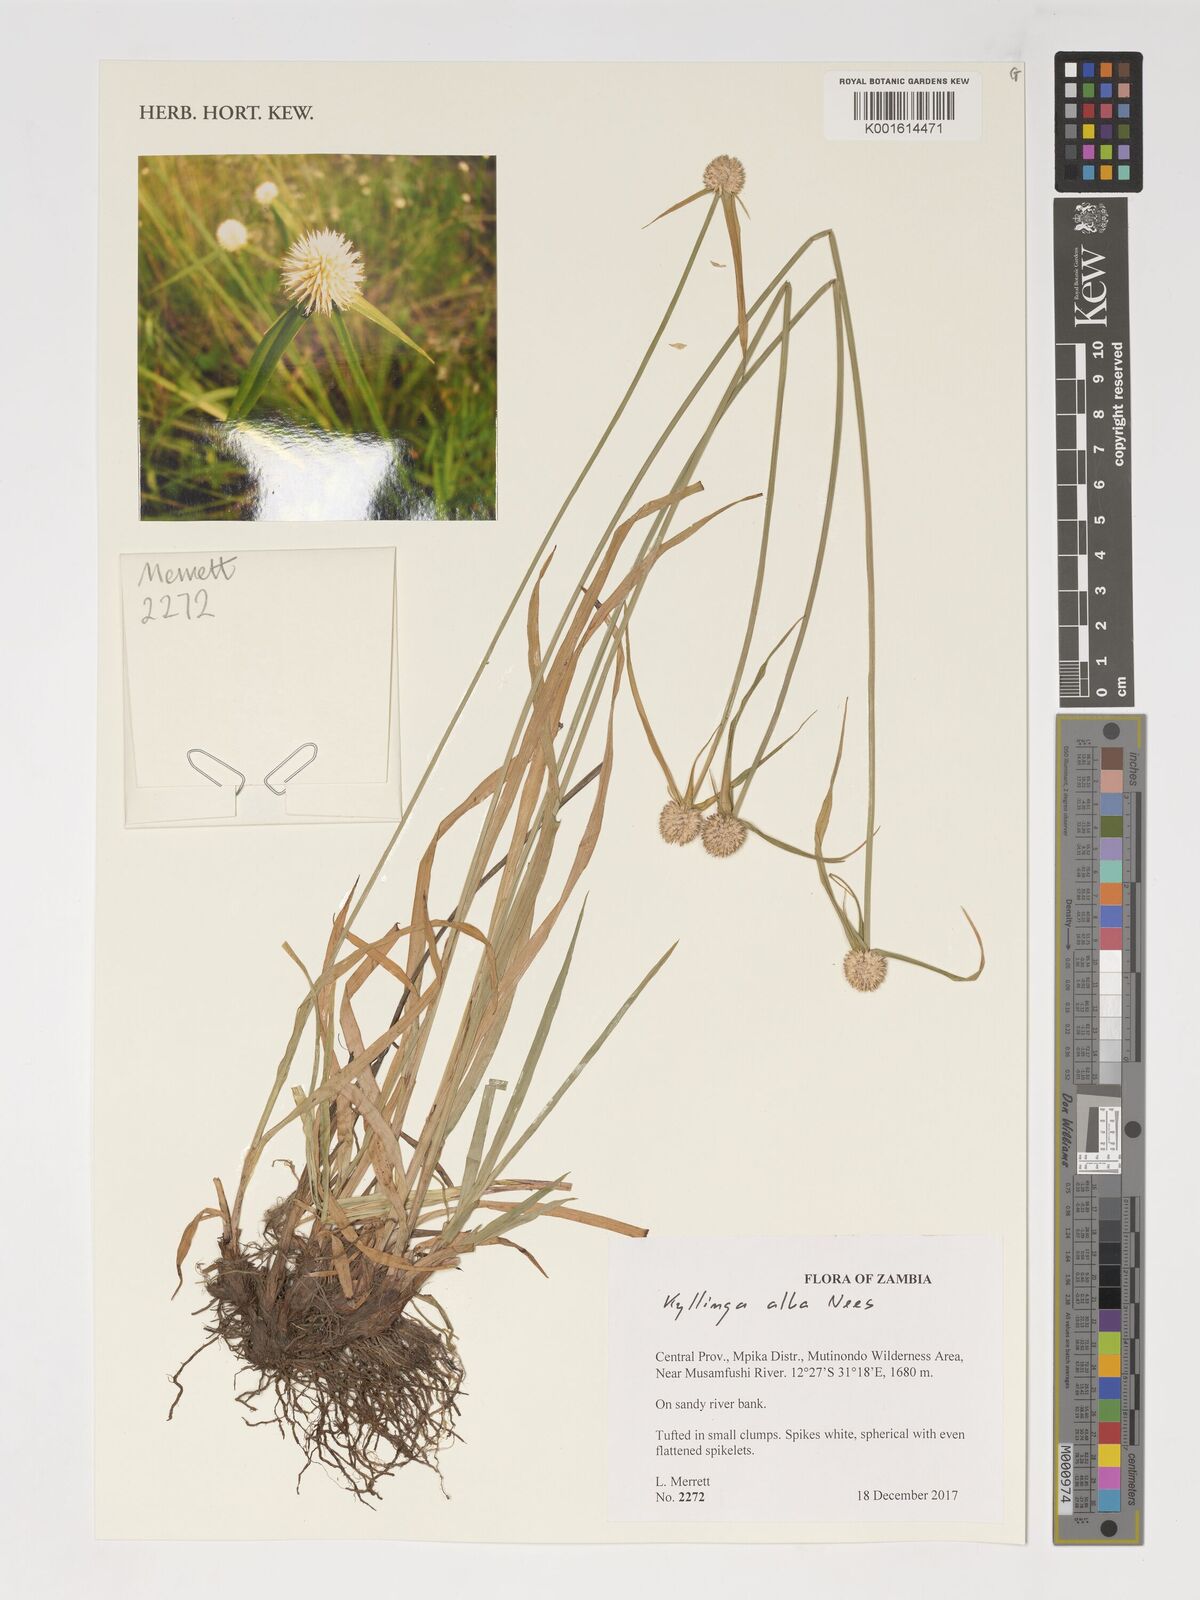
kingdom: Plantae
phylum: Tracheophyta
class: Liliopsida
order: Poales
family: Cyperaceae
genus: Cyperus
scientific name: Cyperus alatus
